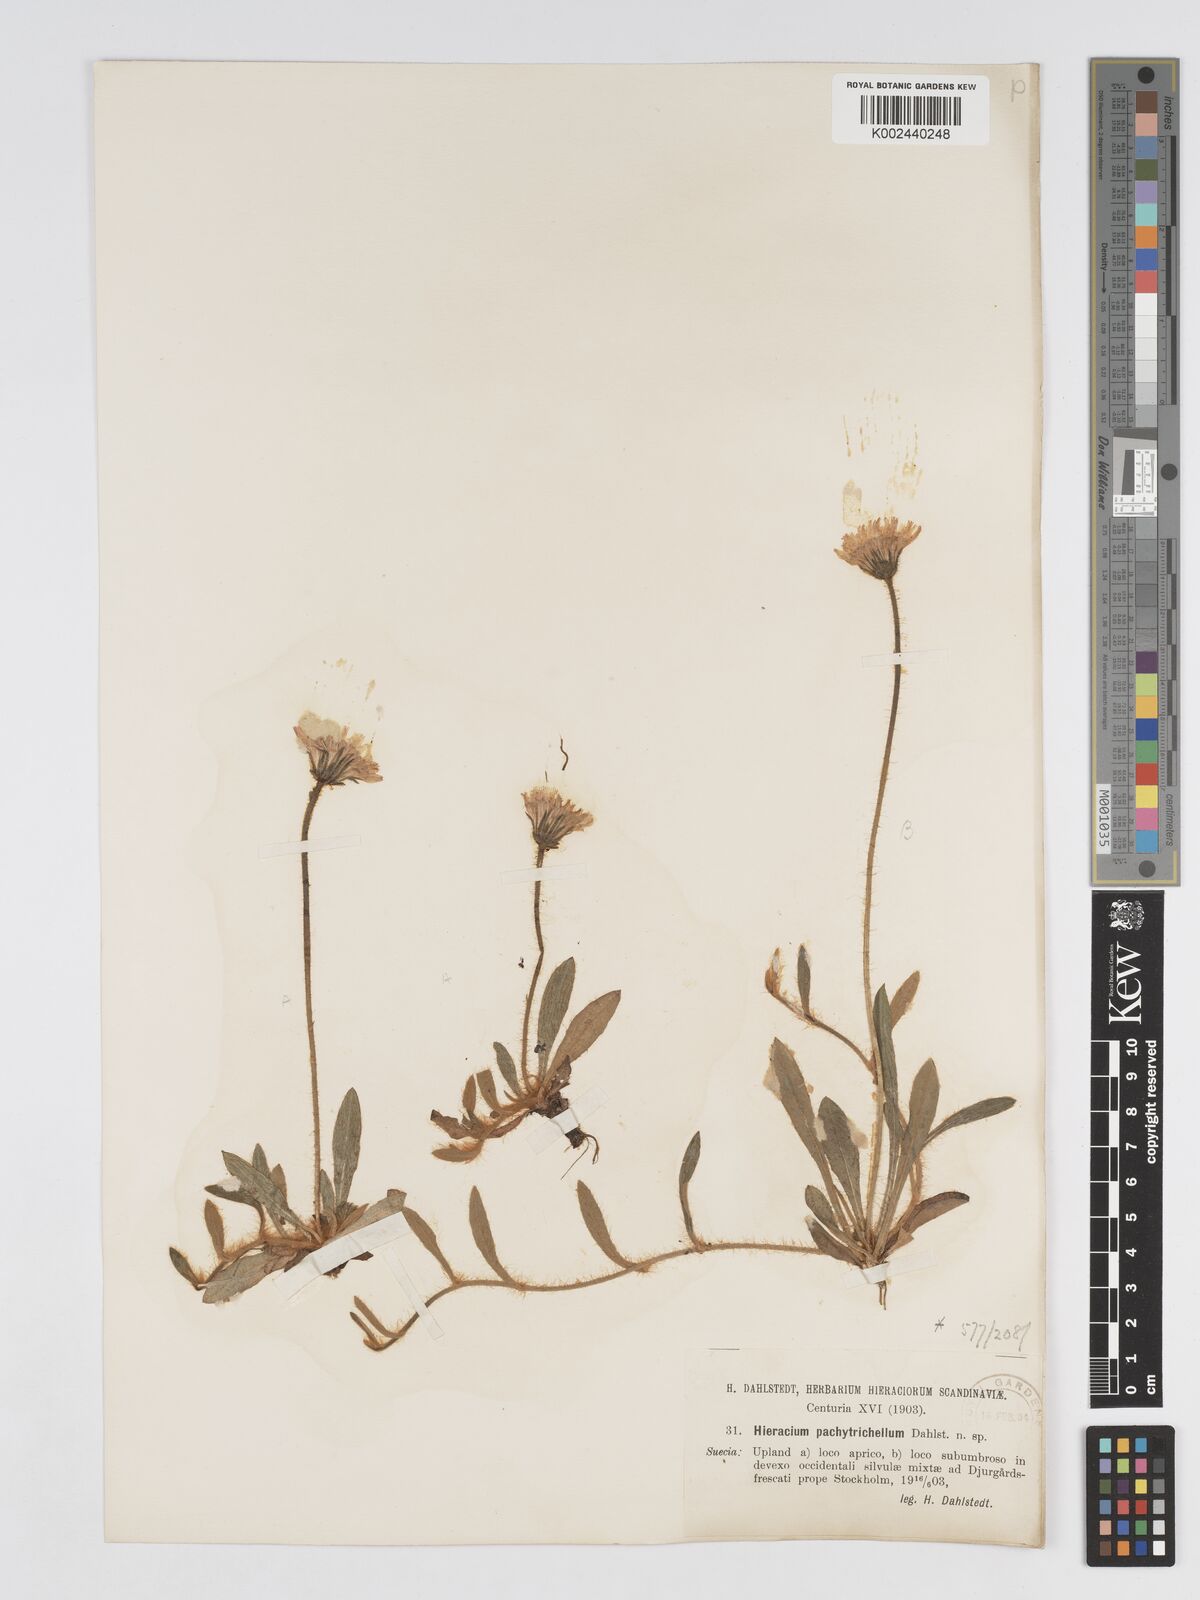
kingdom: Plantae
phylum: Tracheophyta
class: Magnoliopsida
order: Asterales
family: Asteraceae
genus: Pilosella
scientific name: Pilosella officinarum
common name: Mouse-ear hawkweed
